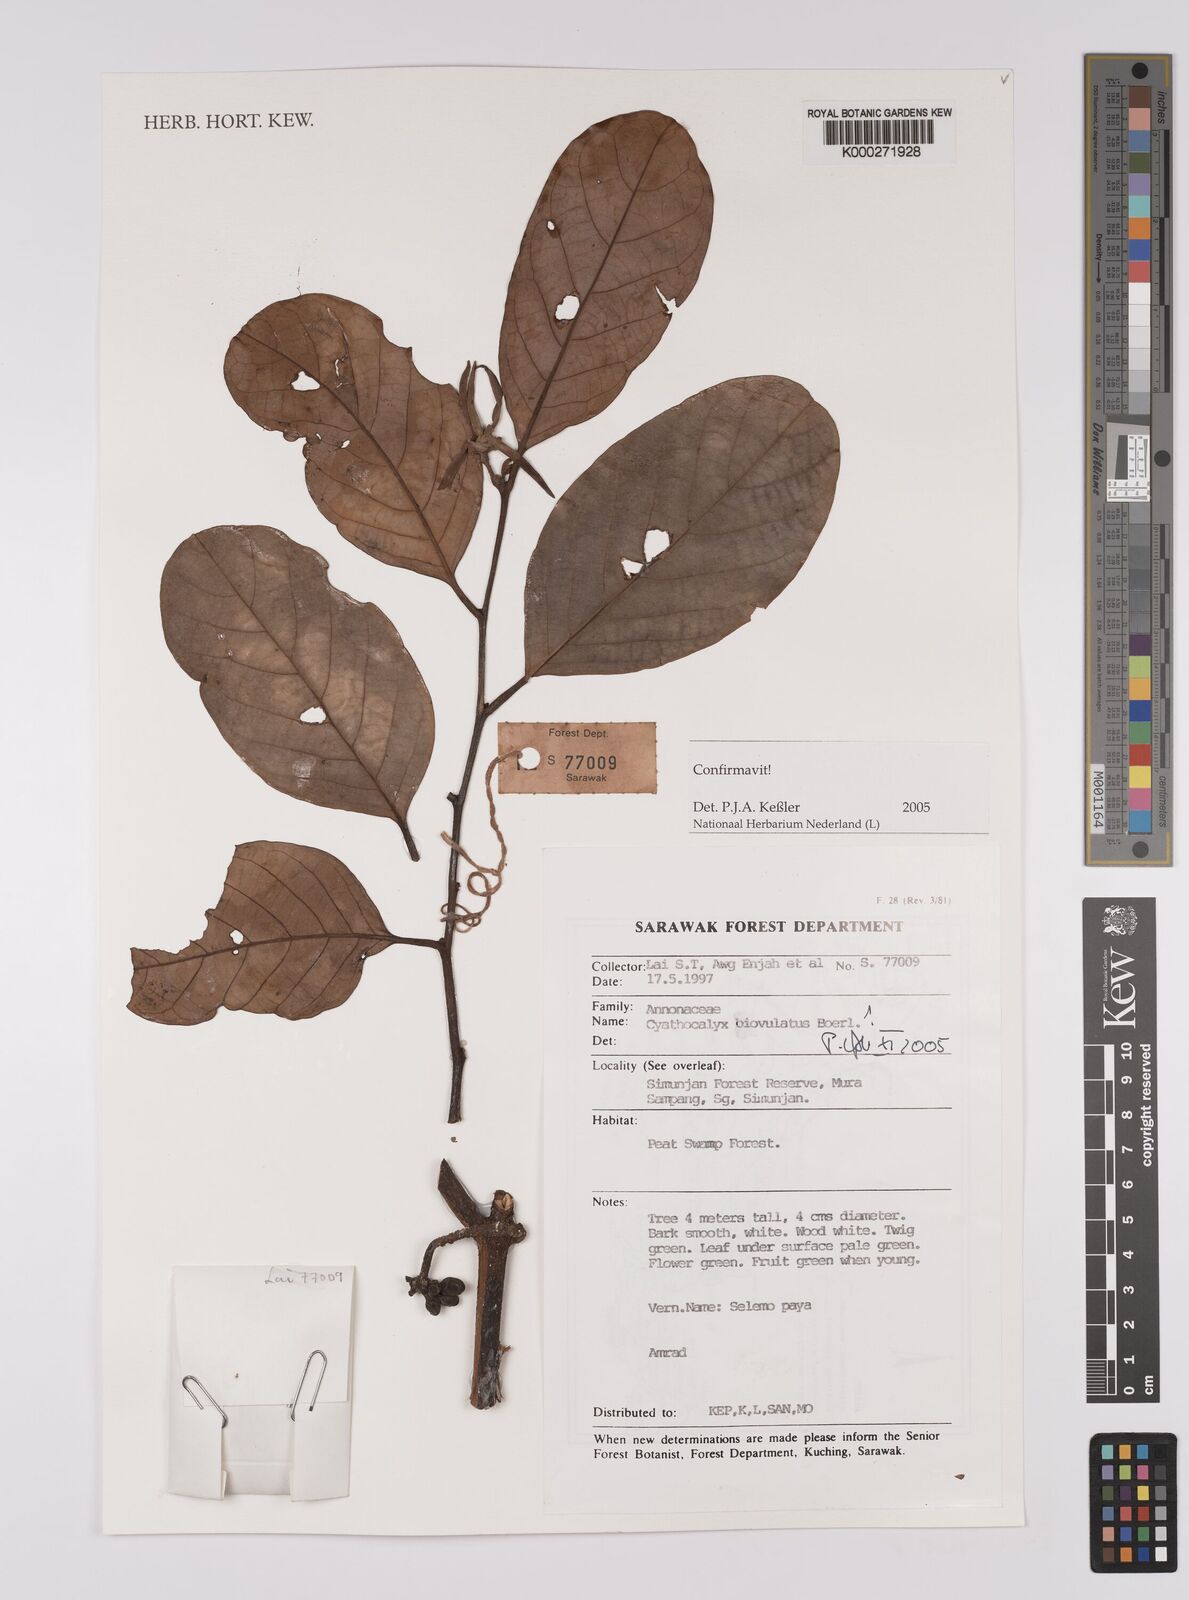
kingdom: Plantae
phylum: Tracheophyta
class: Magnoliopsida
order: Magnoliales
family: Annonaceae
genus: Drepananthus
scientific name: Drepananthus biovulatus
